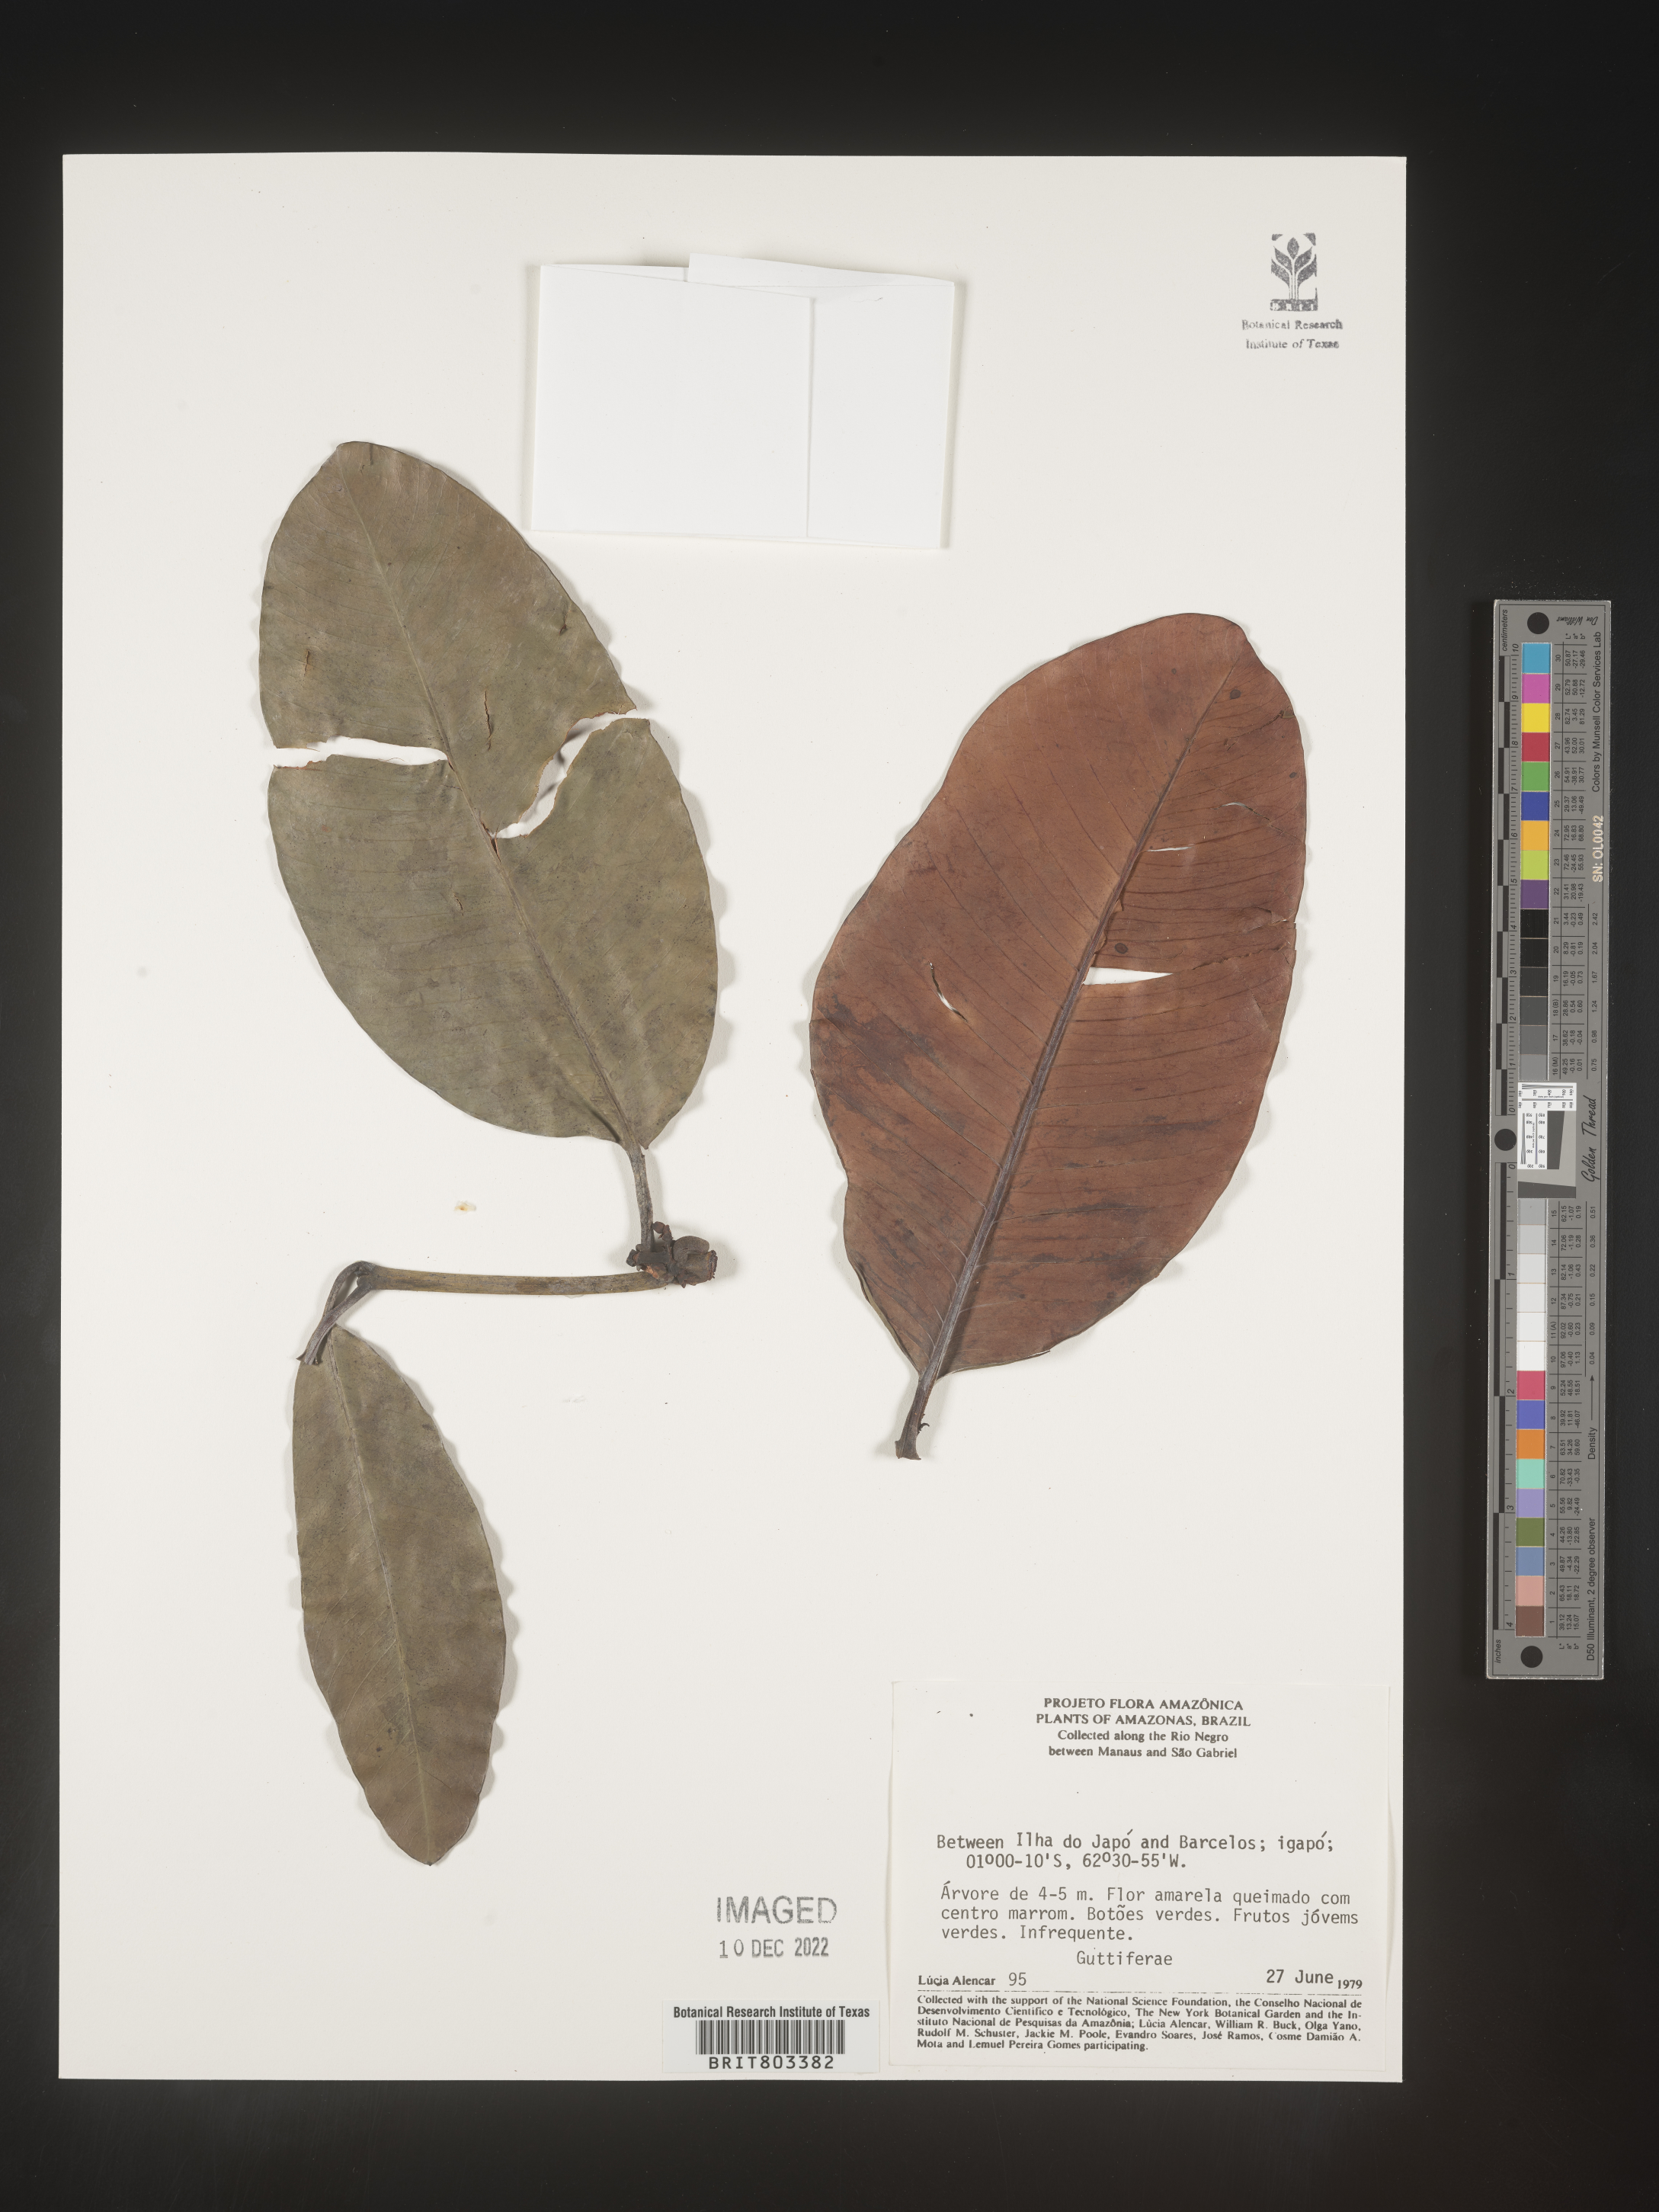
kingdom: Plantae
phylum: Tracheophyta
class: Magnoliopsida
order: Malpighiales
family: Clusiaceae
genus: Tovomita
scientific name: Tovomita
